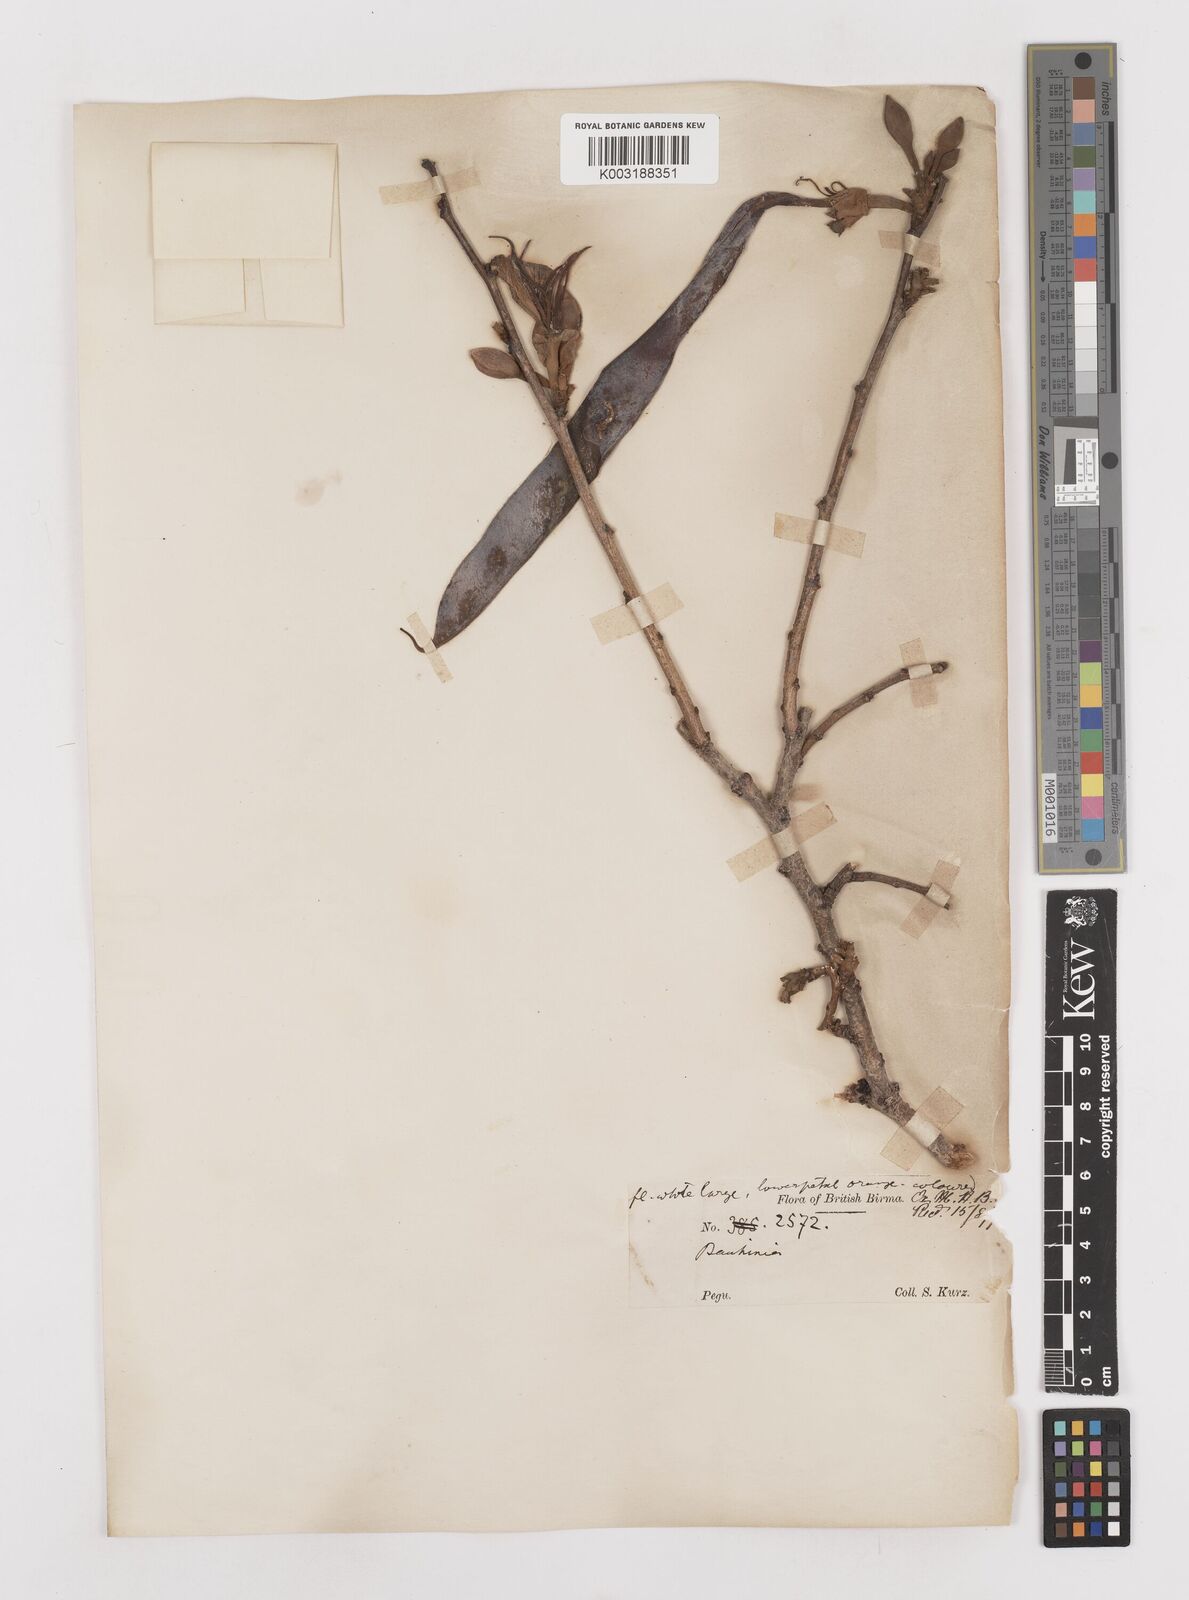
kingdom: Plantae
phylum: Tracheophyta
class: Magnoliopsida
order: Fabales
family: Fabaceae
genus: Bauhinia
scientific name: Bauhinia variegata
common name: Mountain ebony
